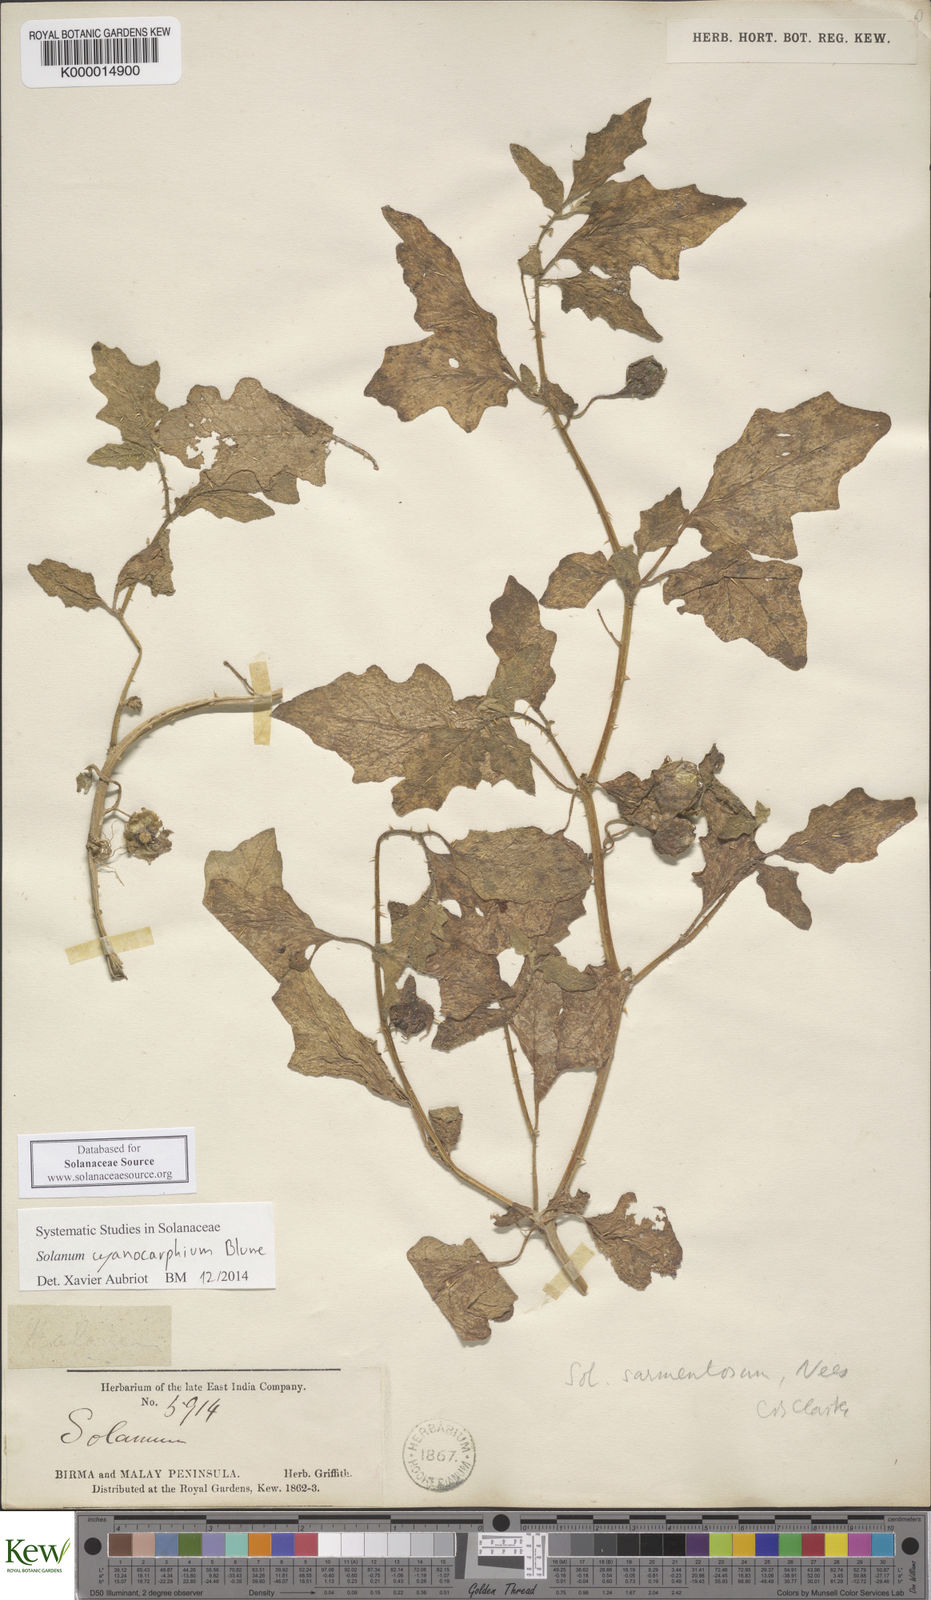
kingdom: Plantae
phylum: Tracheophyta
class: Magnoliopsida
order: Solanales
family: Solanaceae
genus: Solanum
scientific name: Solanum cyanocarphium
